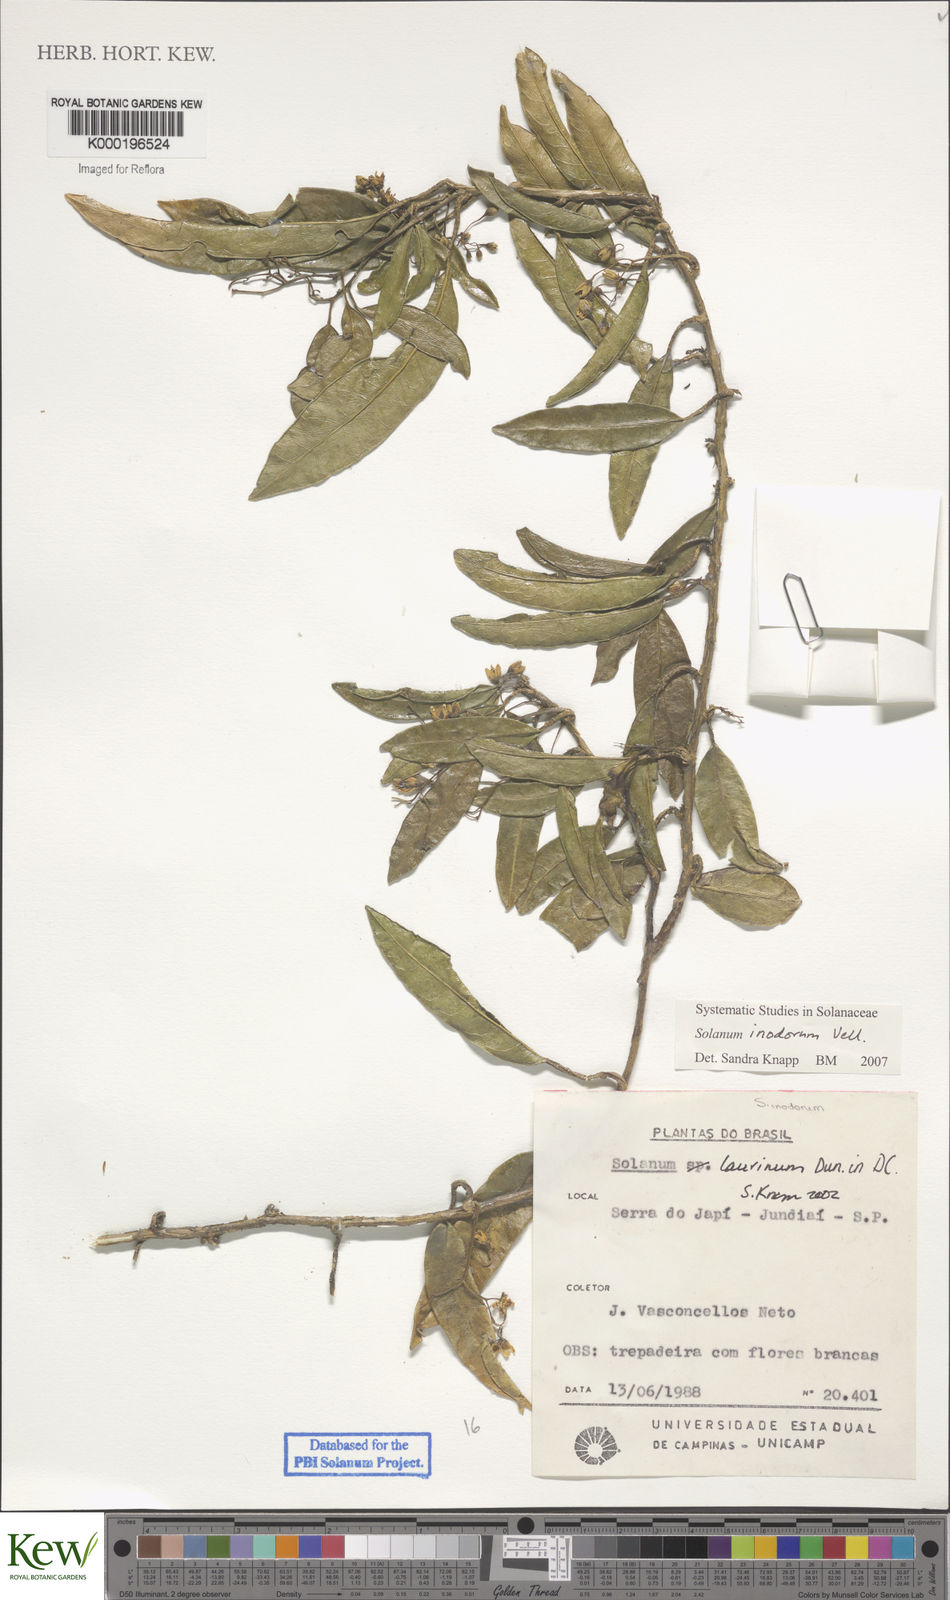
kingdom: Plantae
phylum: Tracheophyta
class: Magnoliopsida
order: Solanales
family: Solanaceae
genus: Solanum
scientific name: Solanum inodorum
